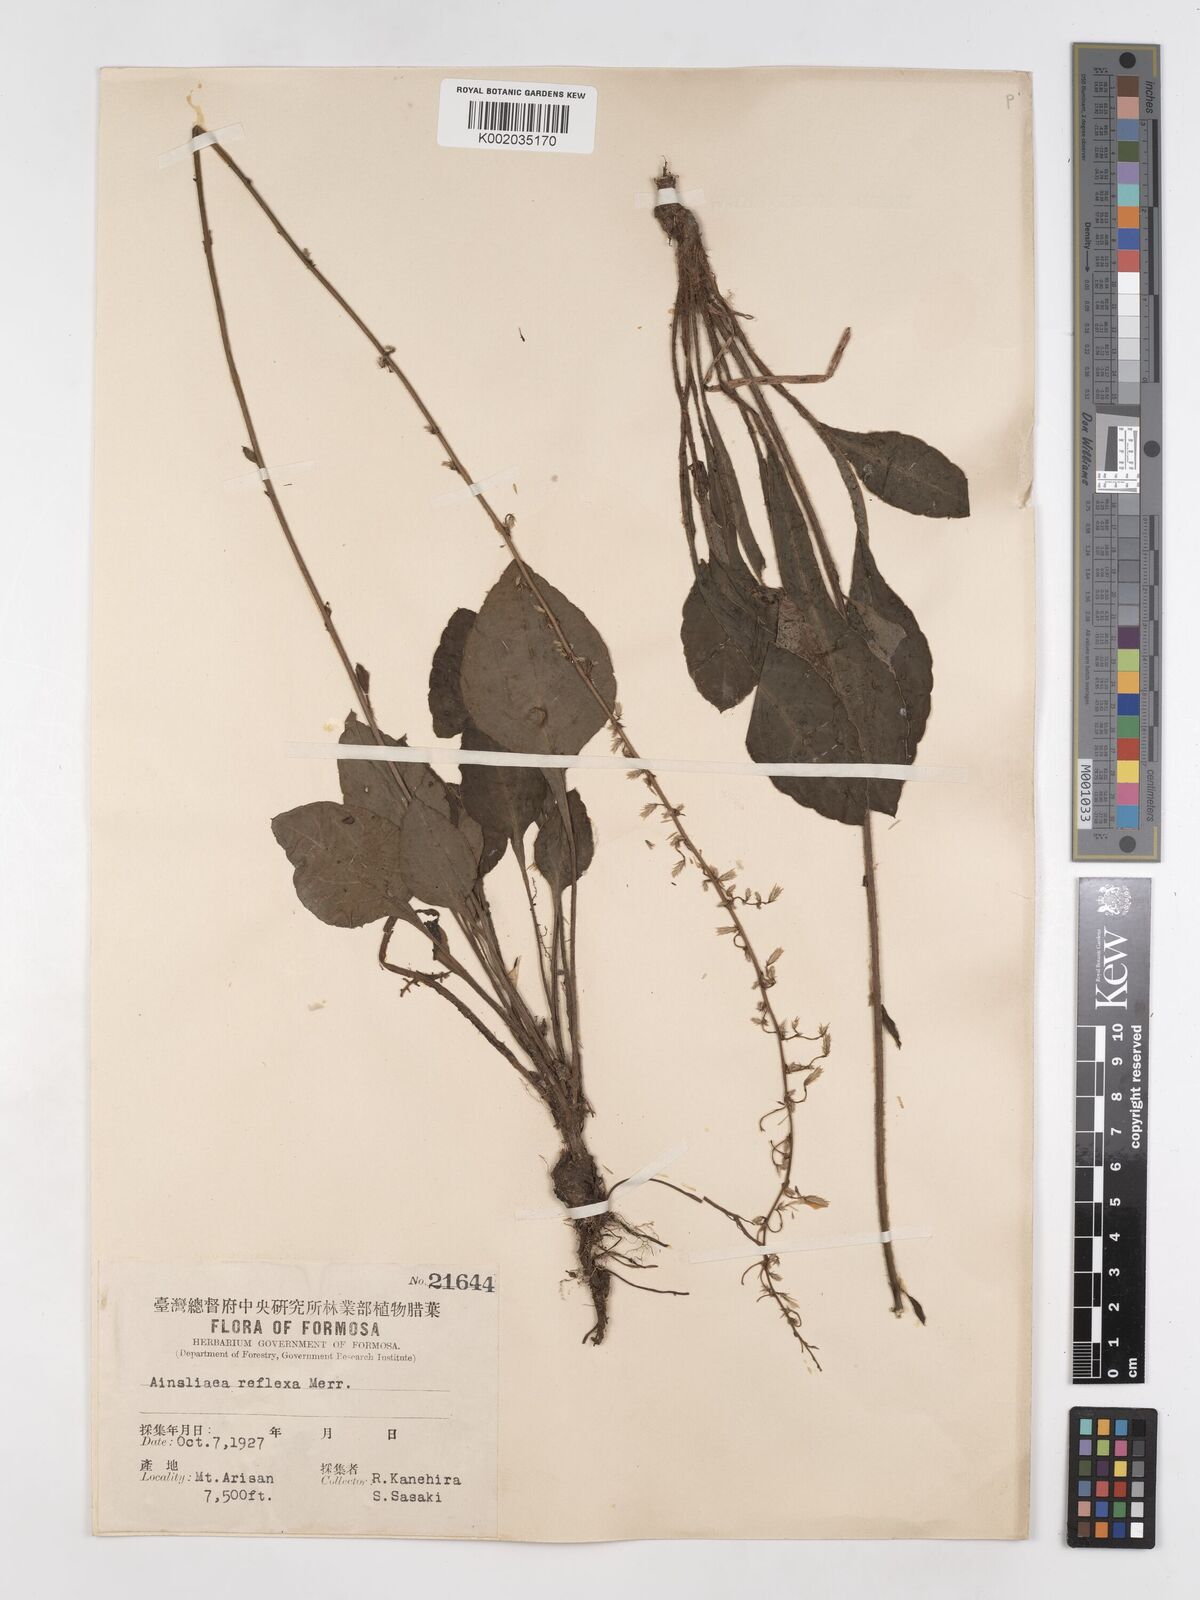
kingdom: Plantae
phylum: Tracheophyta
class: Magnoliopsida
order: Asterales
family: Asteraceae
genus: Ainsliaea
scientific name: Ainsliaea reflexa
